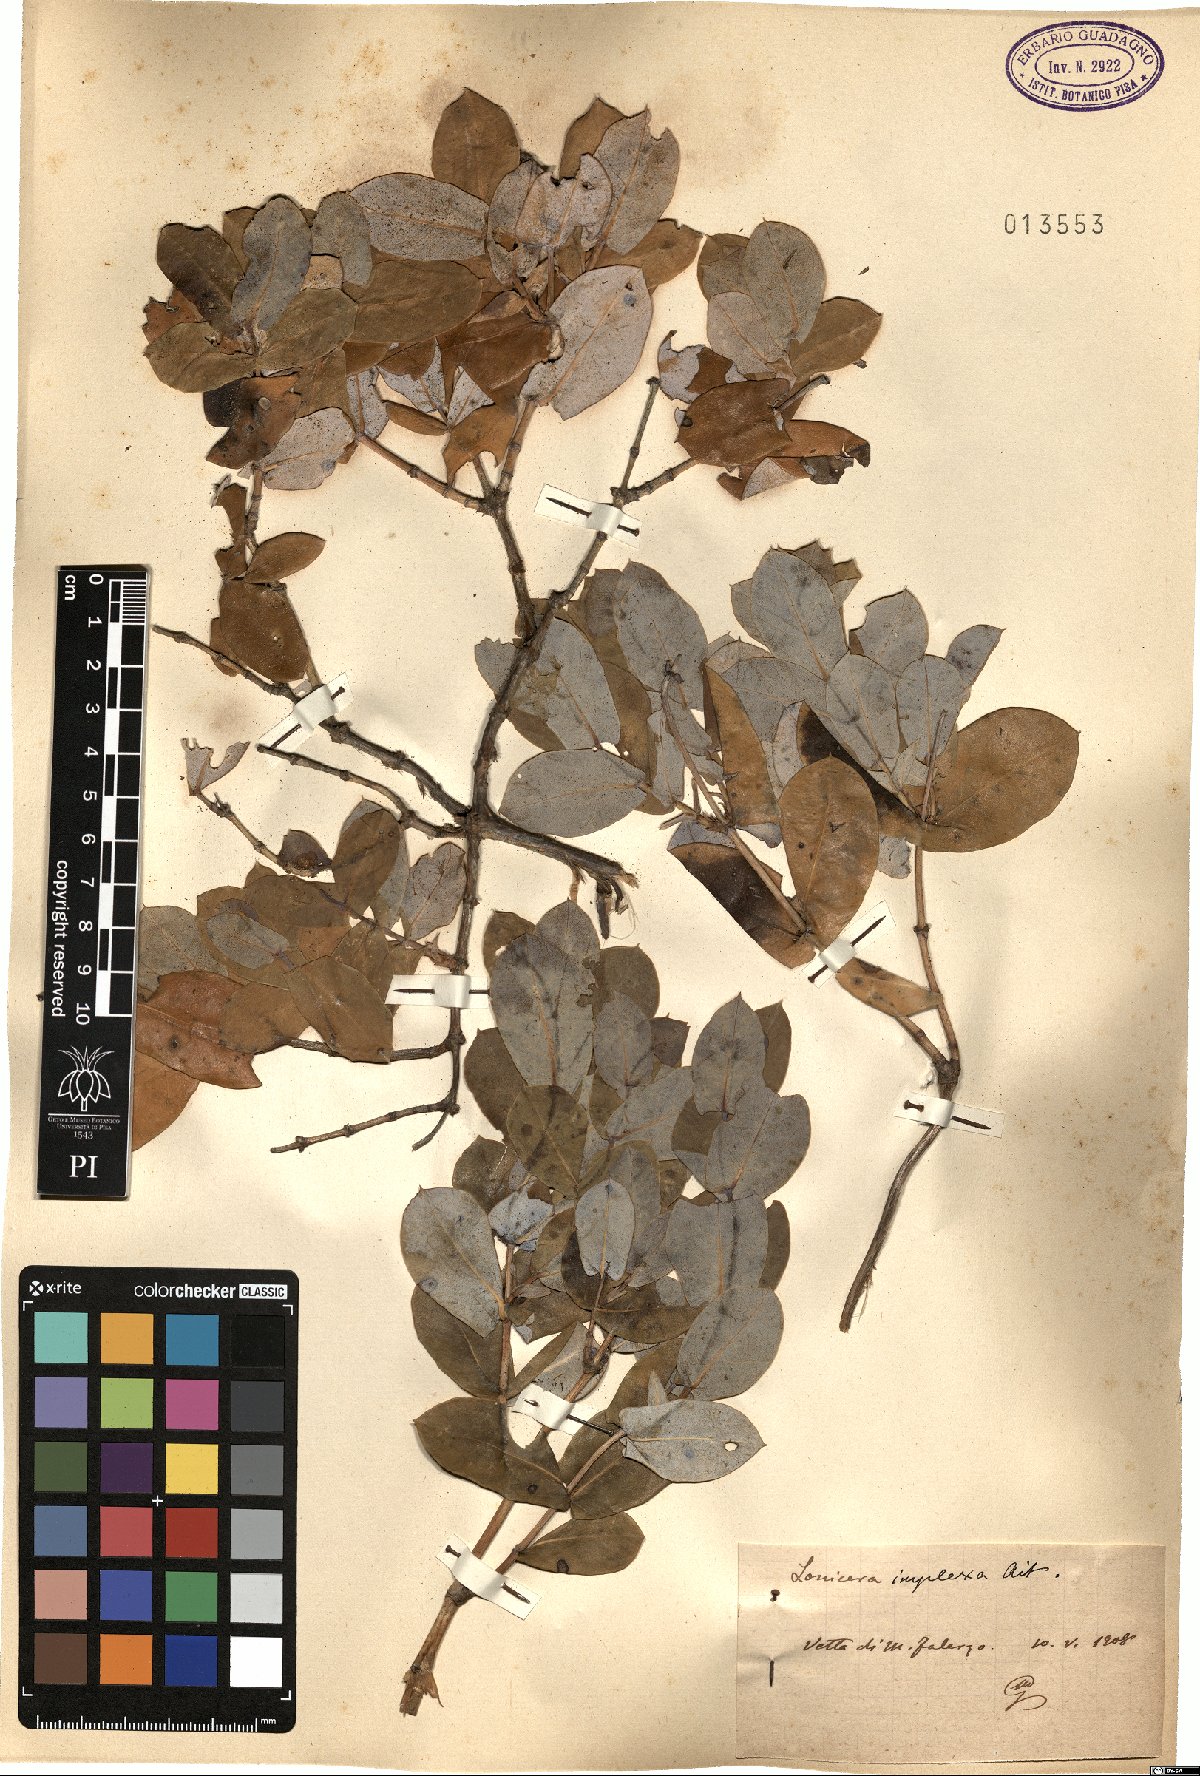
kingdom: Plantae
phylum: Tracheophyta
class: Magnoliopsida
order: Dipsacales
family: Caprifoliaceae
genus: Lonicera
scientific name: Lonicera implexa
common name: Minorca honeysuckle
